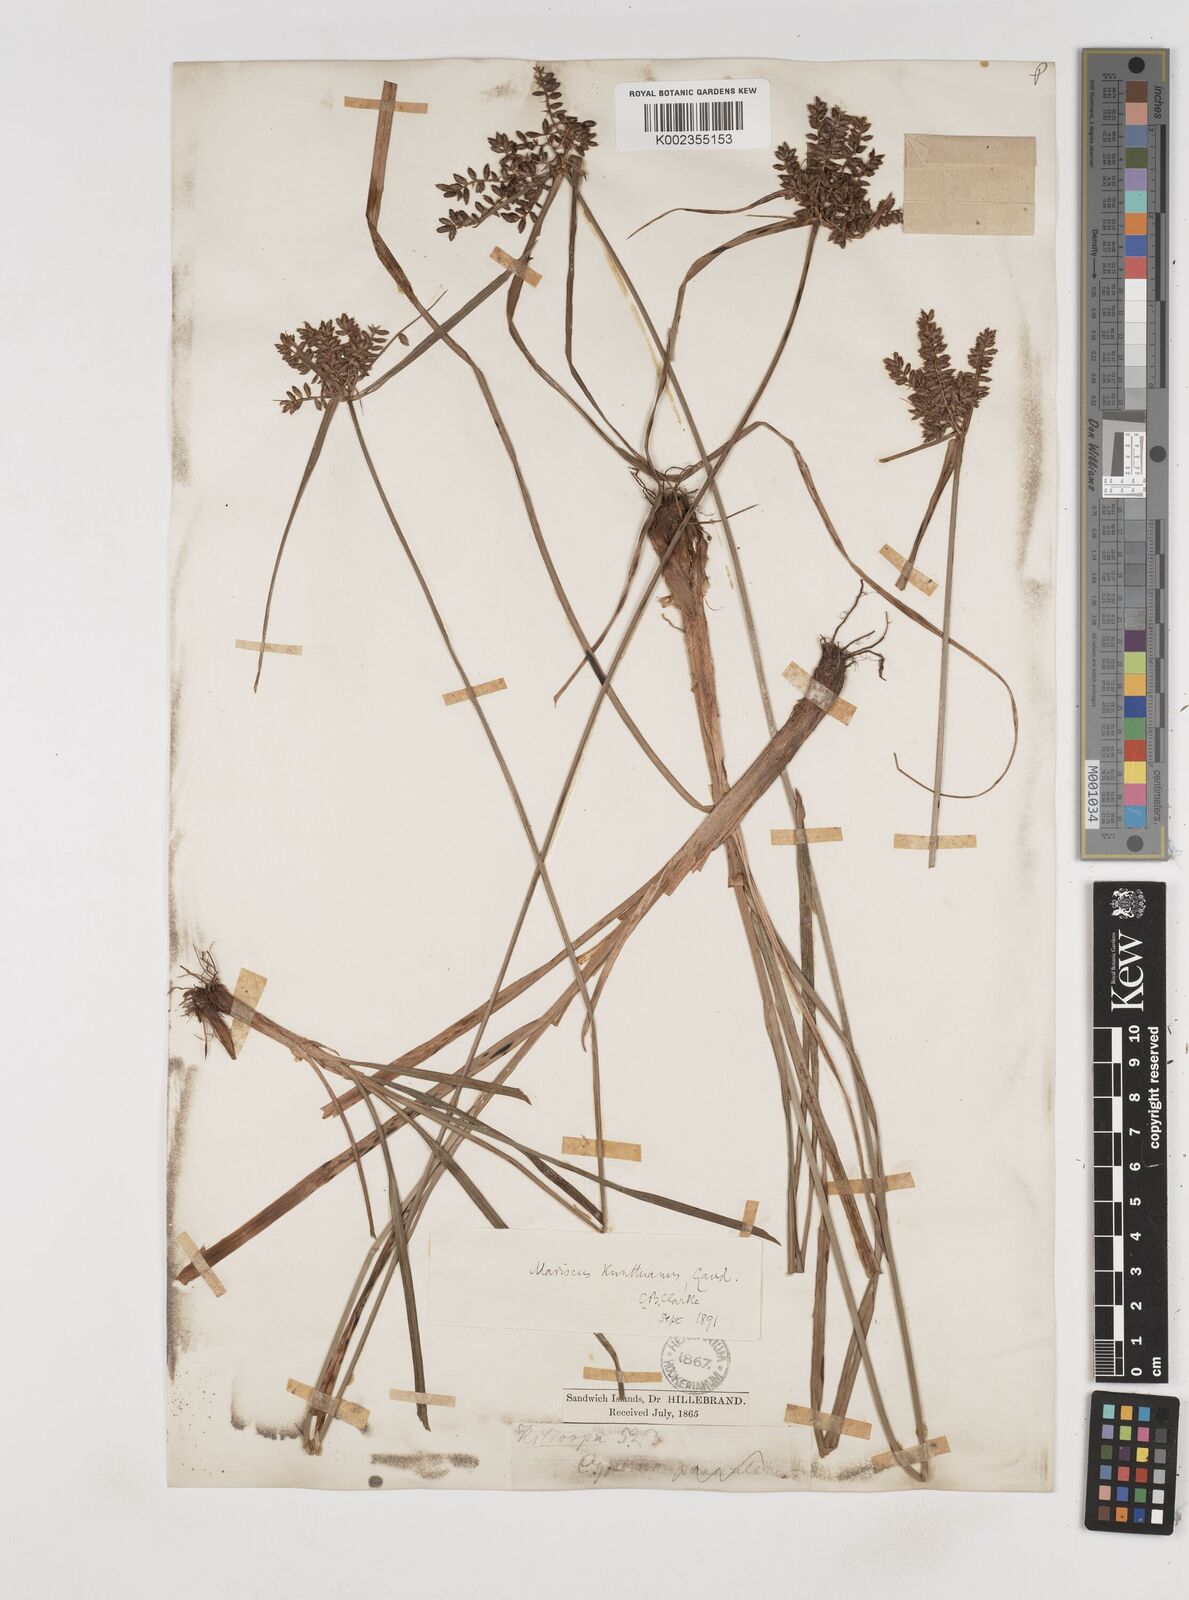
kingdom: Plantae
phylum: Tracheophyta
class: Liliopsida
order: Poales
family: Cyperaceae
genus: Cyperus
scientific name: Cyperus hillebrandii
